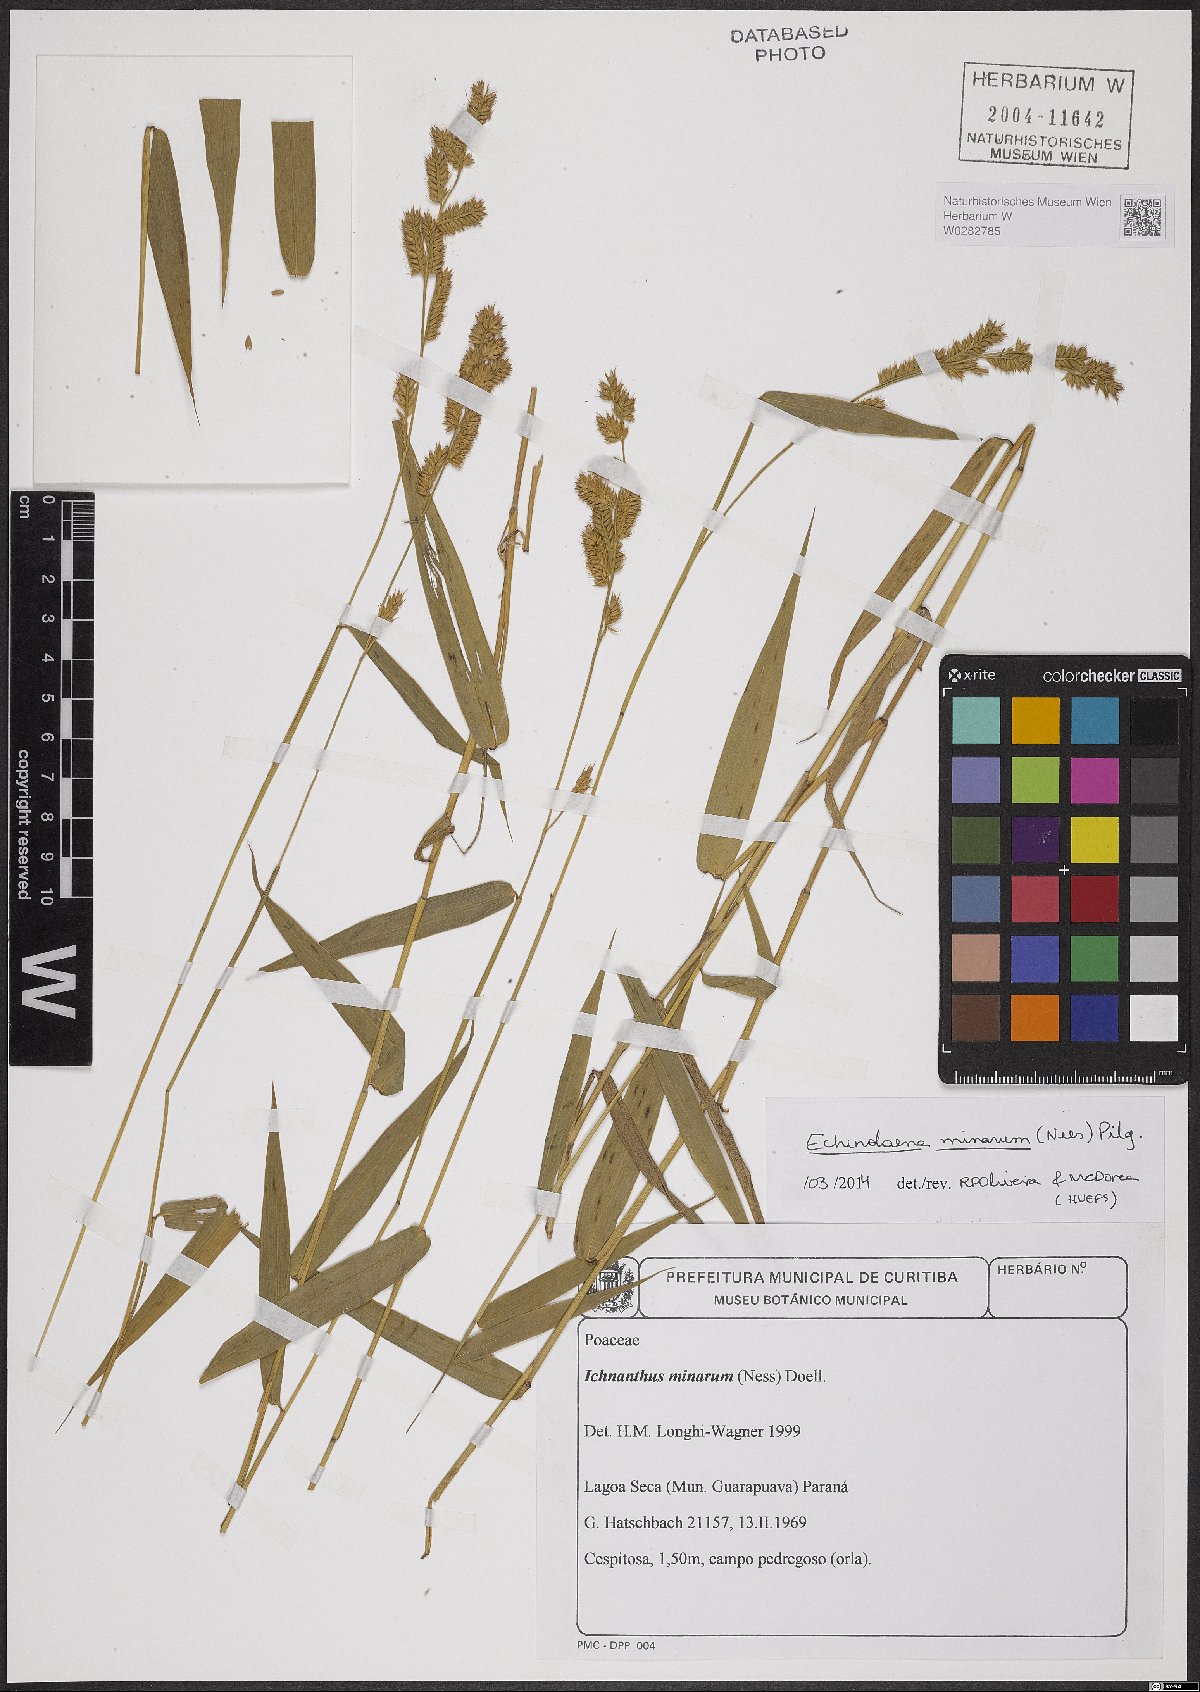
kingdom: Plantae
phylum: Tracheophyta
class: Liliopsida
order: Poales
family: Poaceae
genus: Oedochloa
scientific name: Oedochloa minarum
